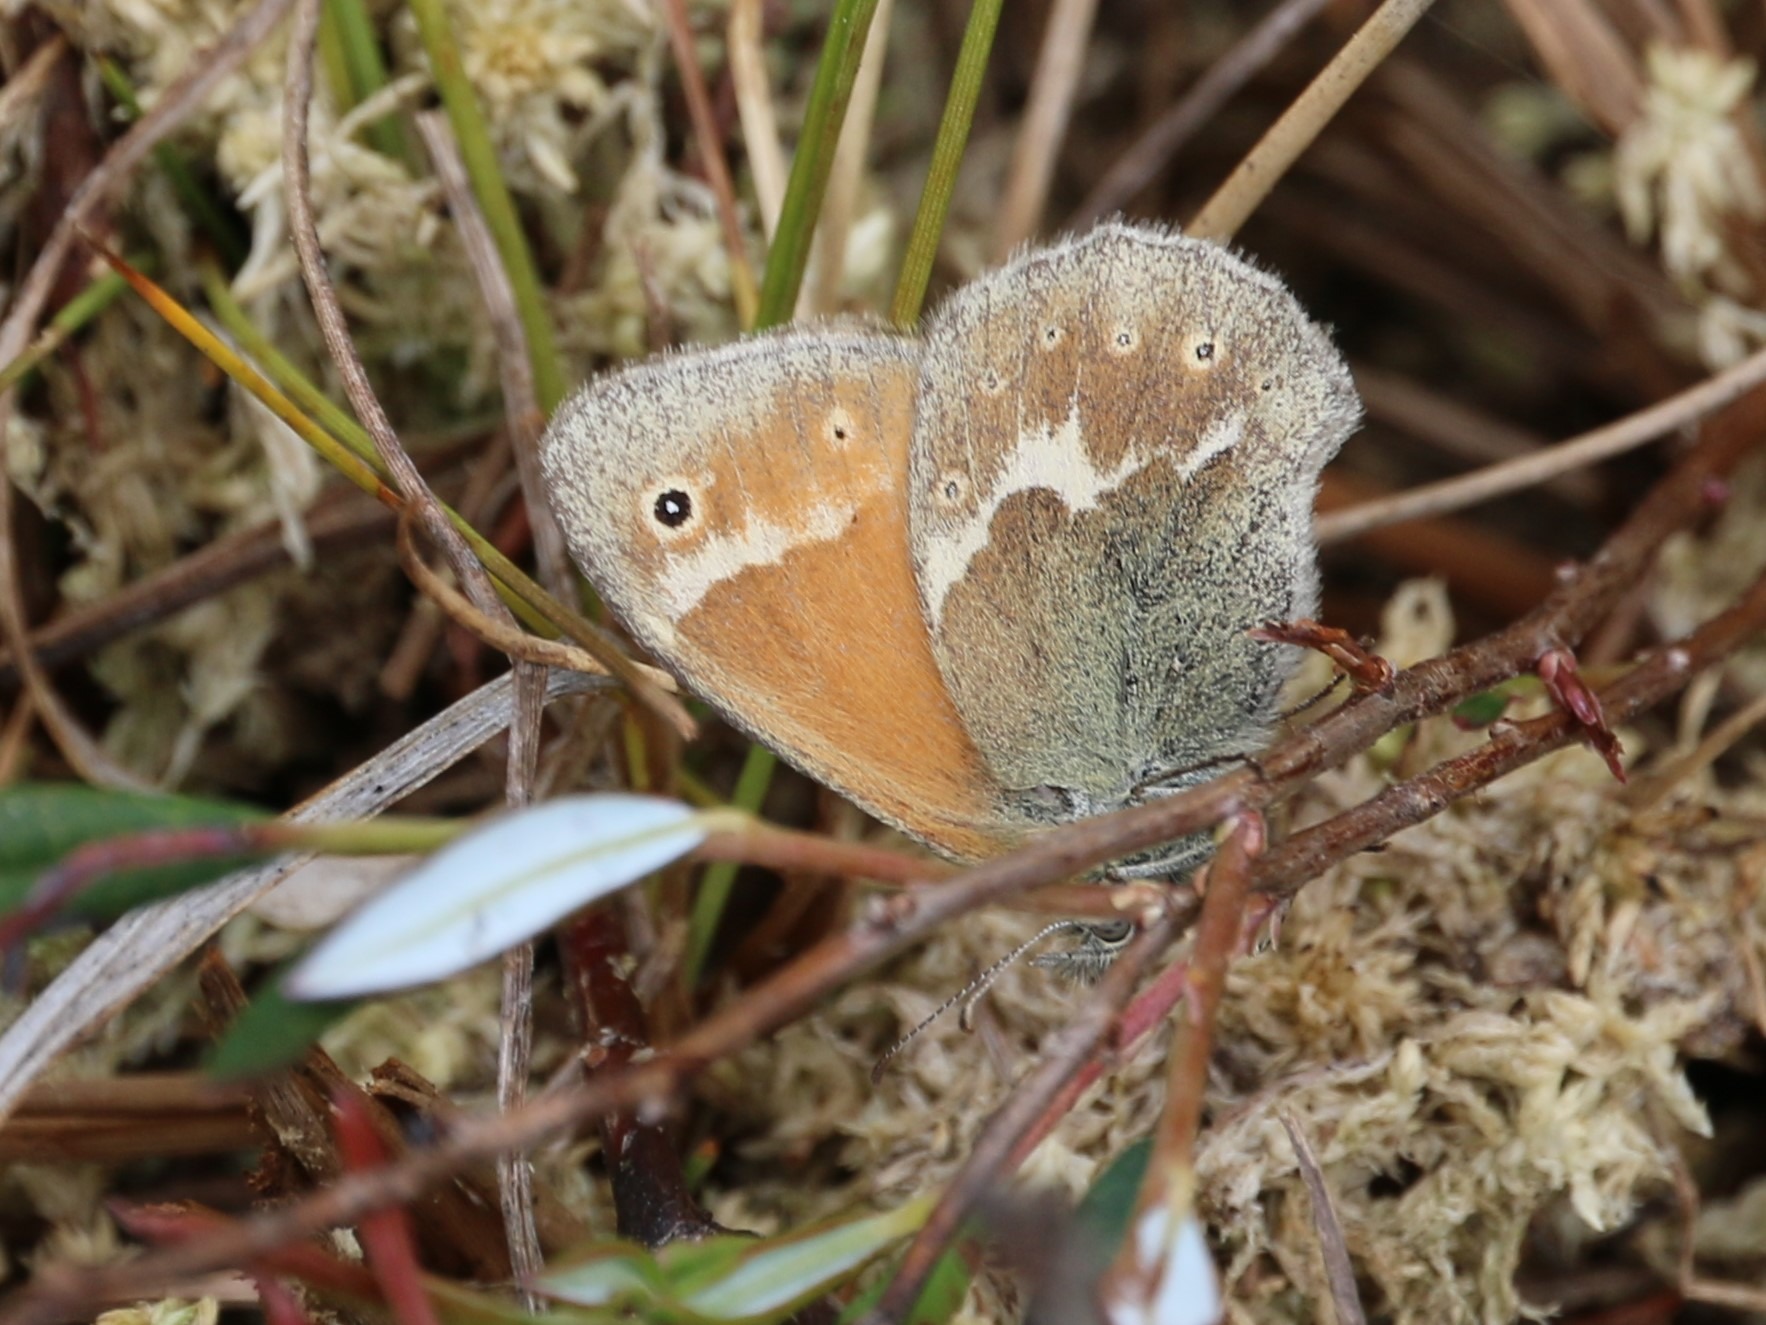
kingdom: Animalia
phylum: Arthropoda
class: Insecta
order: Lepidoptera
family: Nymphalidae
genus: Coenonympha
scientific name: Coenonympha tullia
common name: Moserandøje
